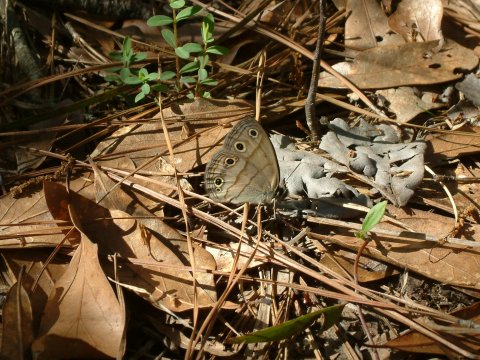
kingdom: Animalia
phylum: Arthropoda
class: Insecta
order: Lepidoptera
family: Nymphalidae
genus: Euptychia
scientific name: Euptychia cymela
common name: Little Wood Satyr
